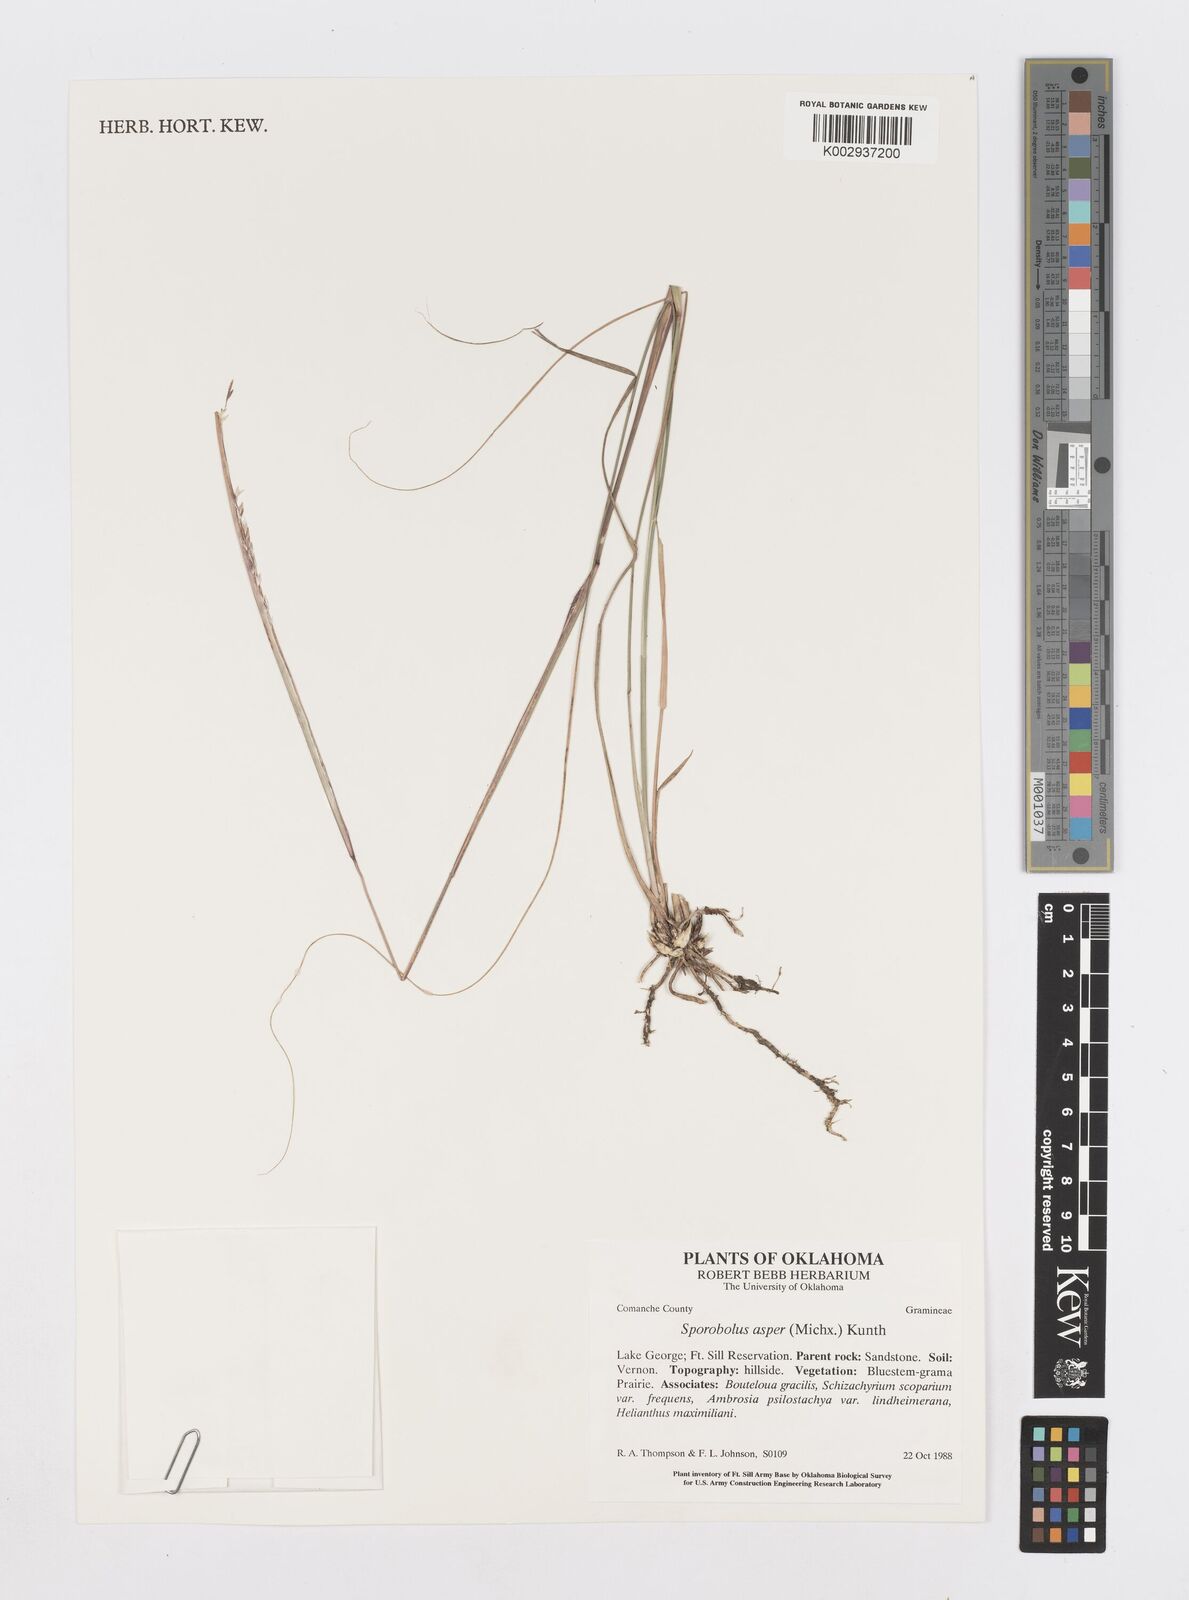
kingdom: Plantae
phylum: Tracheophyta
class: Liliopsida
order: Poales
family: Poaceae
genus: Sporobolus
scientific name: Sporobolus compositus
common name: Rough dropseed
